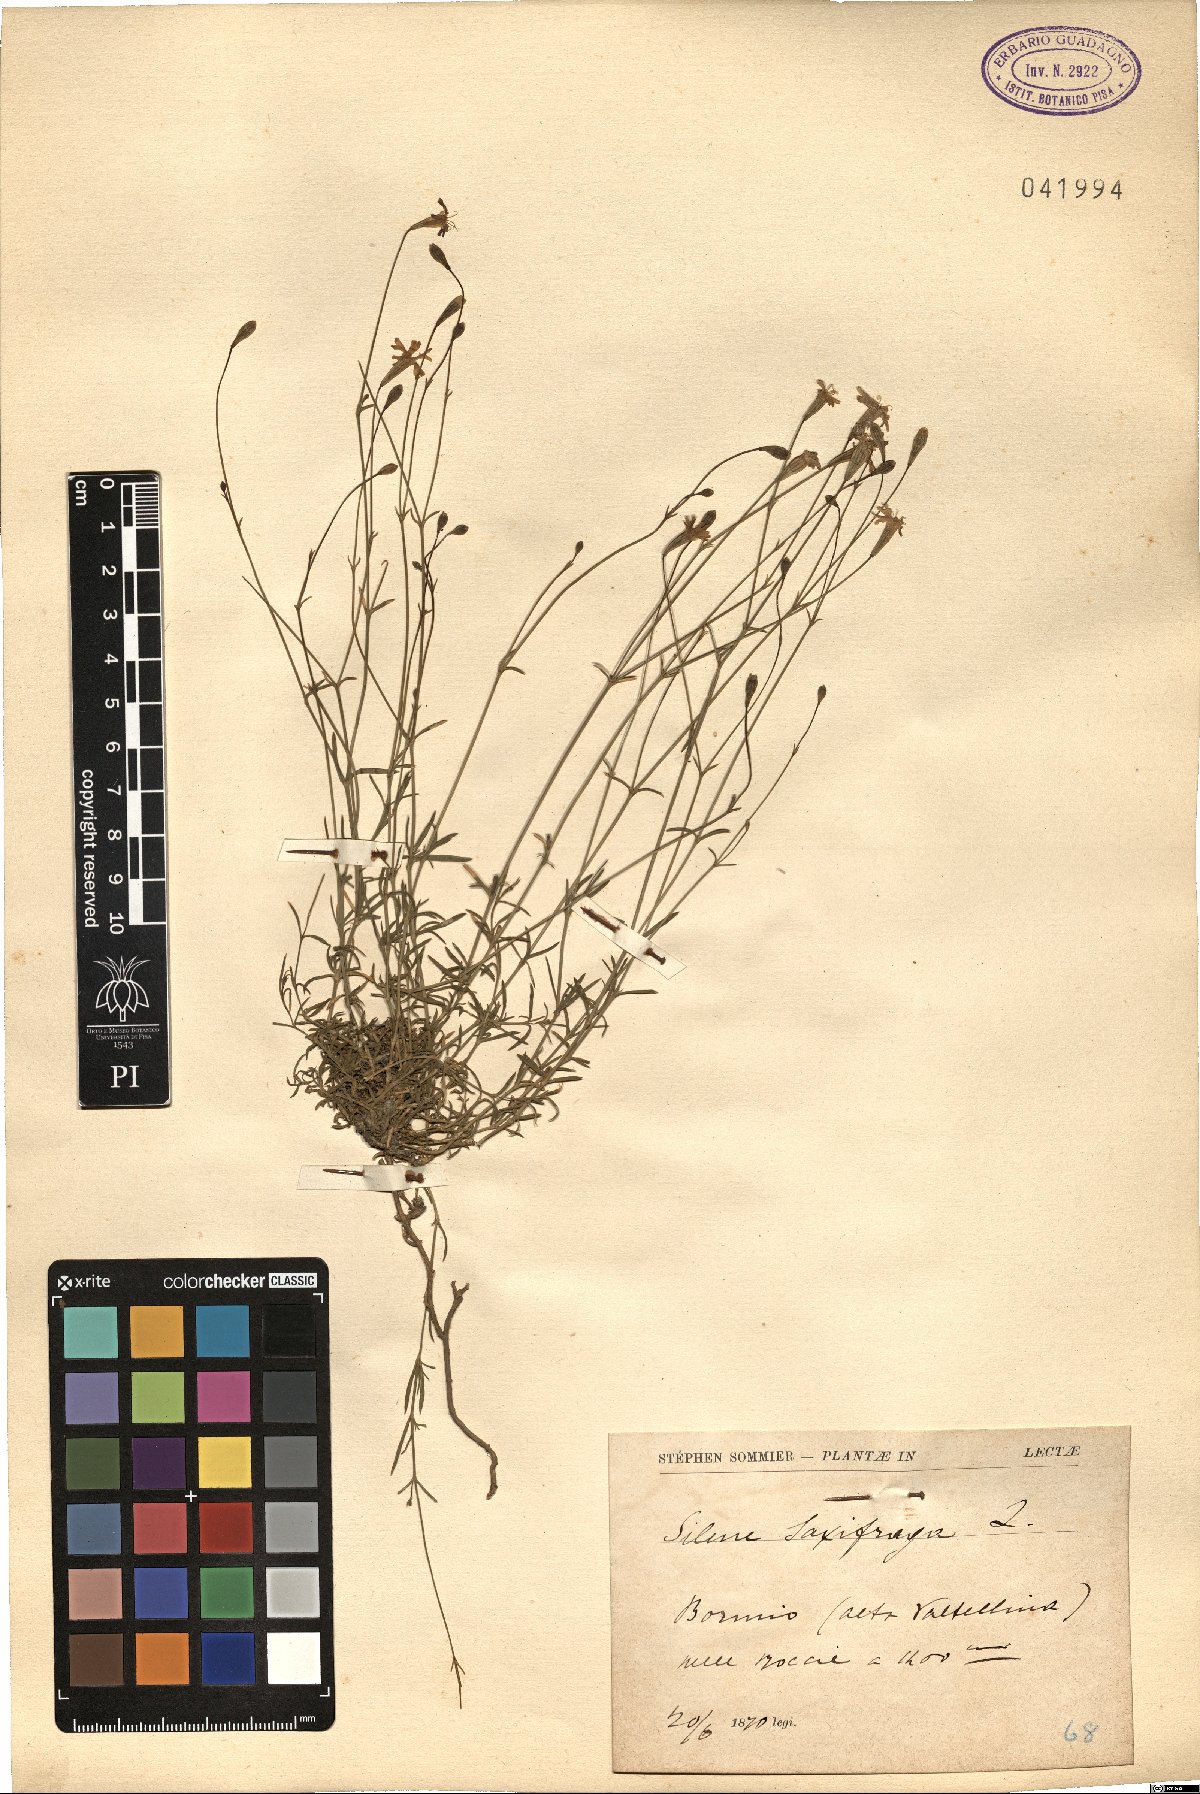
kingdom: Plantae
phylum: Tracheophyta
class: Magnoliopsida
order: Caryophyllales
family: Caryophyllaceae
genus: Silene
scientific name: Silene saxifraga
